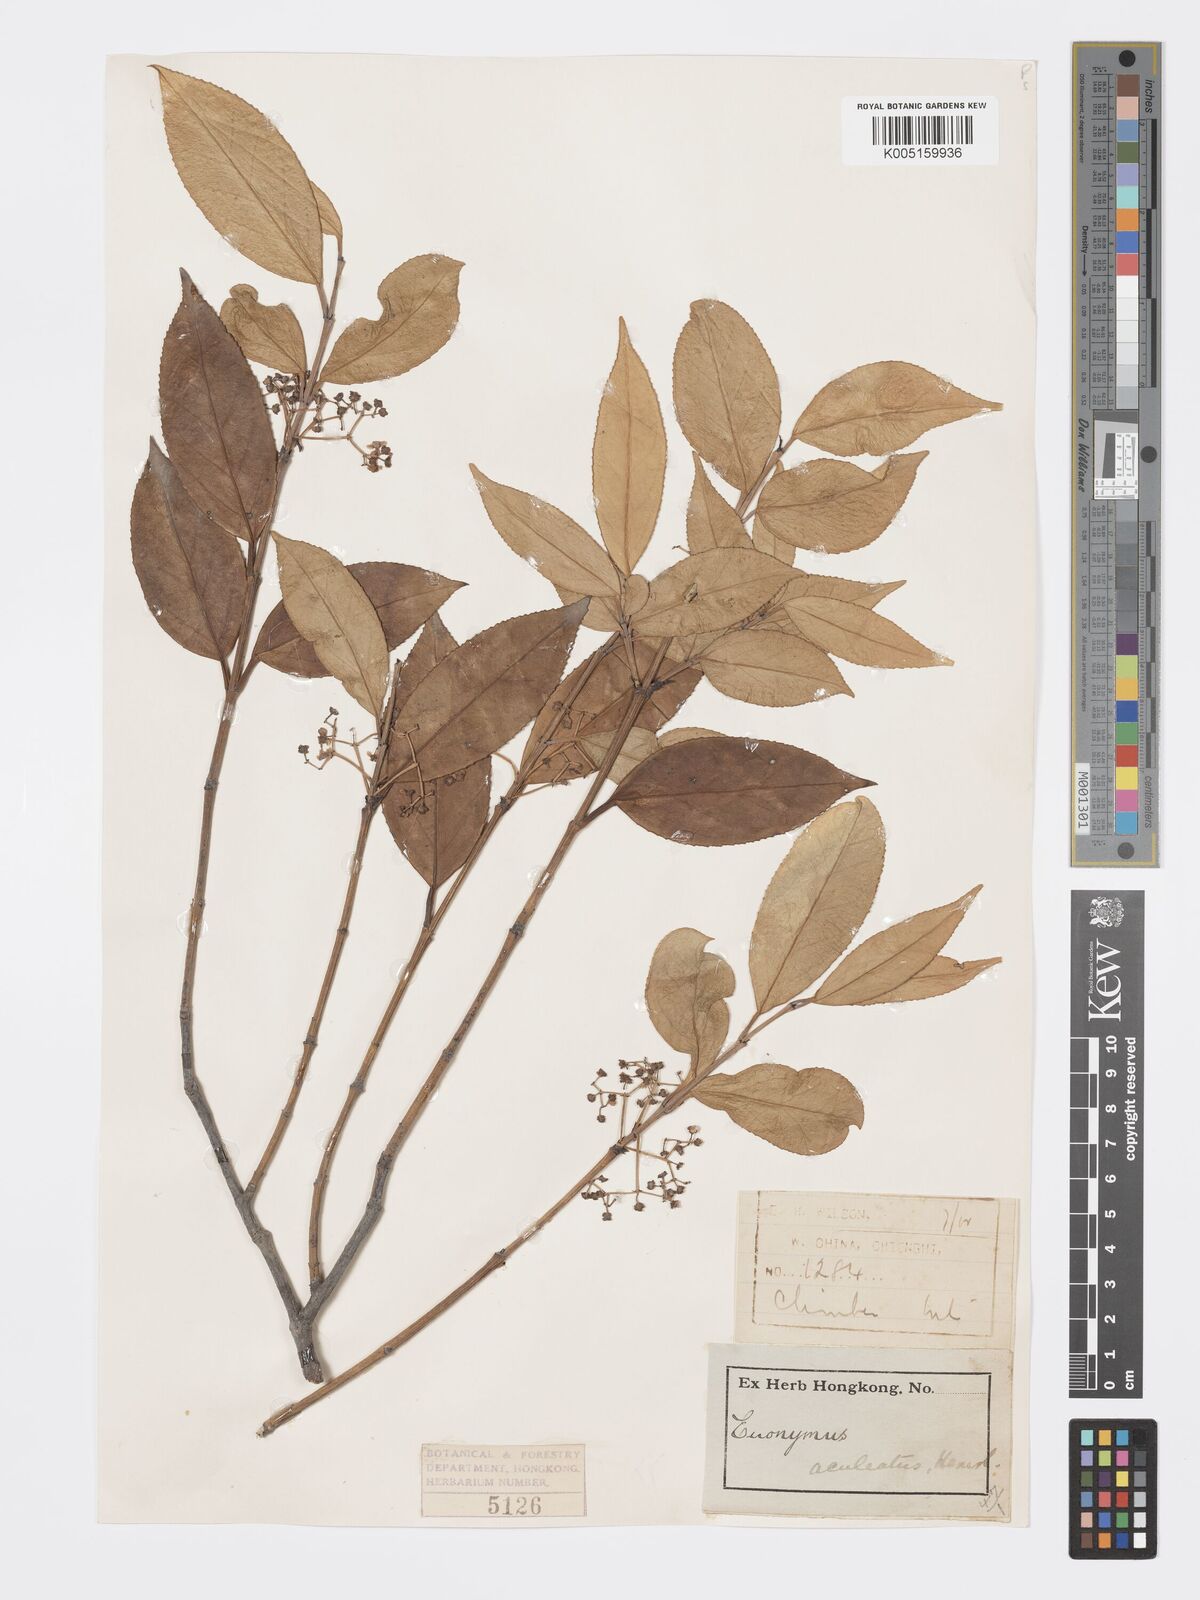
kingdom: Plantae
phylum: Tracheophyta
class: Magnoliopsida
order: Celastrales
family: Celastraceae
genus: Euonymus
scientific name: Euonymus aculeatus
